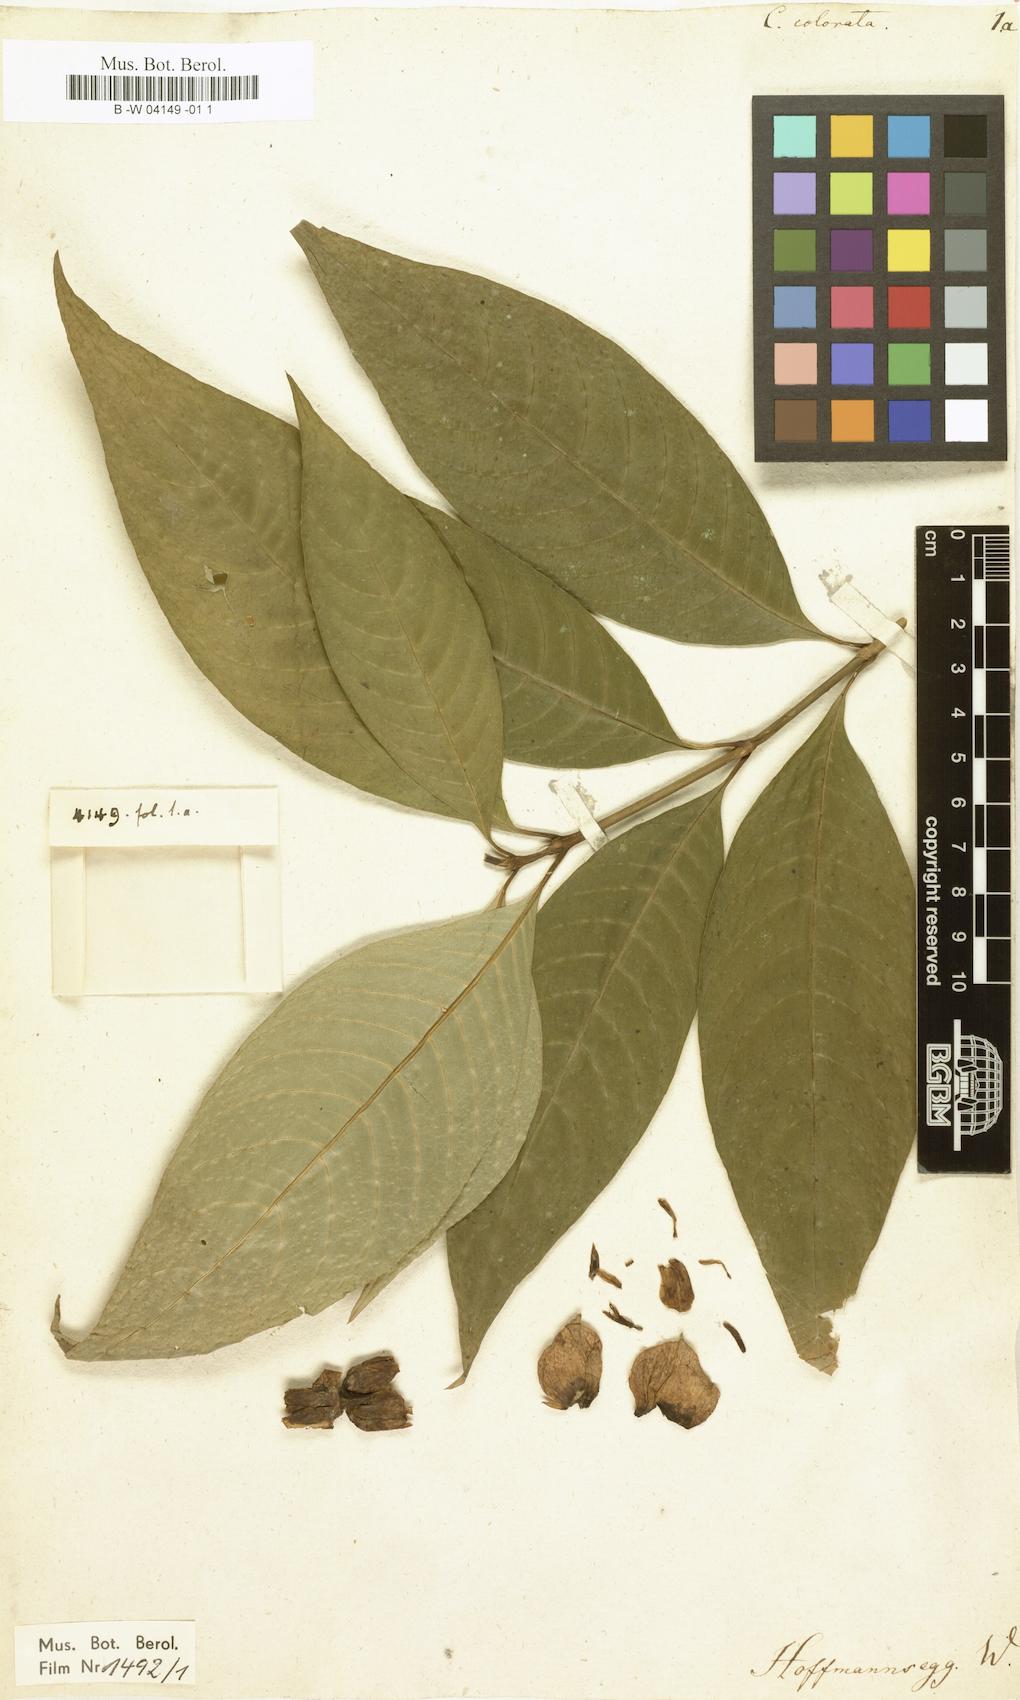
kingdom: Plantae
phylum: Tracheophyta
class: Magnoliopsida
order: Gentianales
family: Rubiaceae
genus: Palicourea
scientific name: Palicourea colorata
